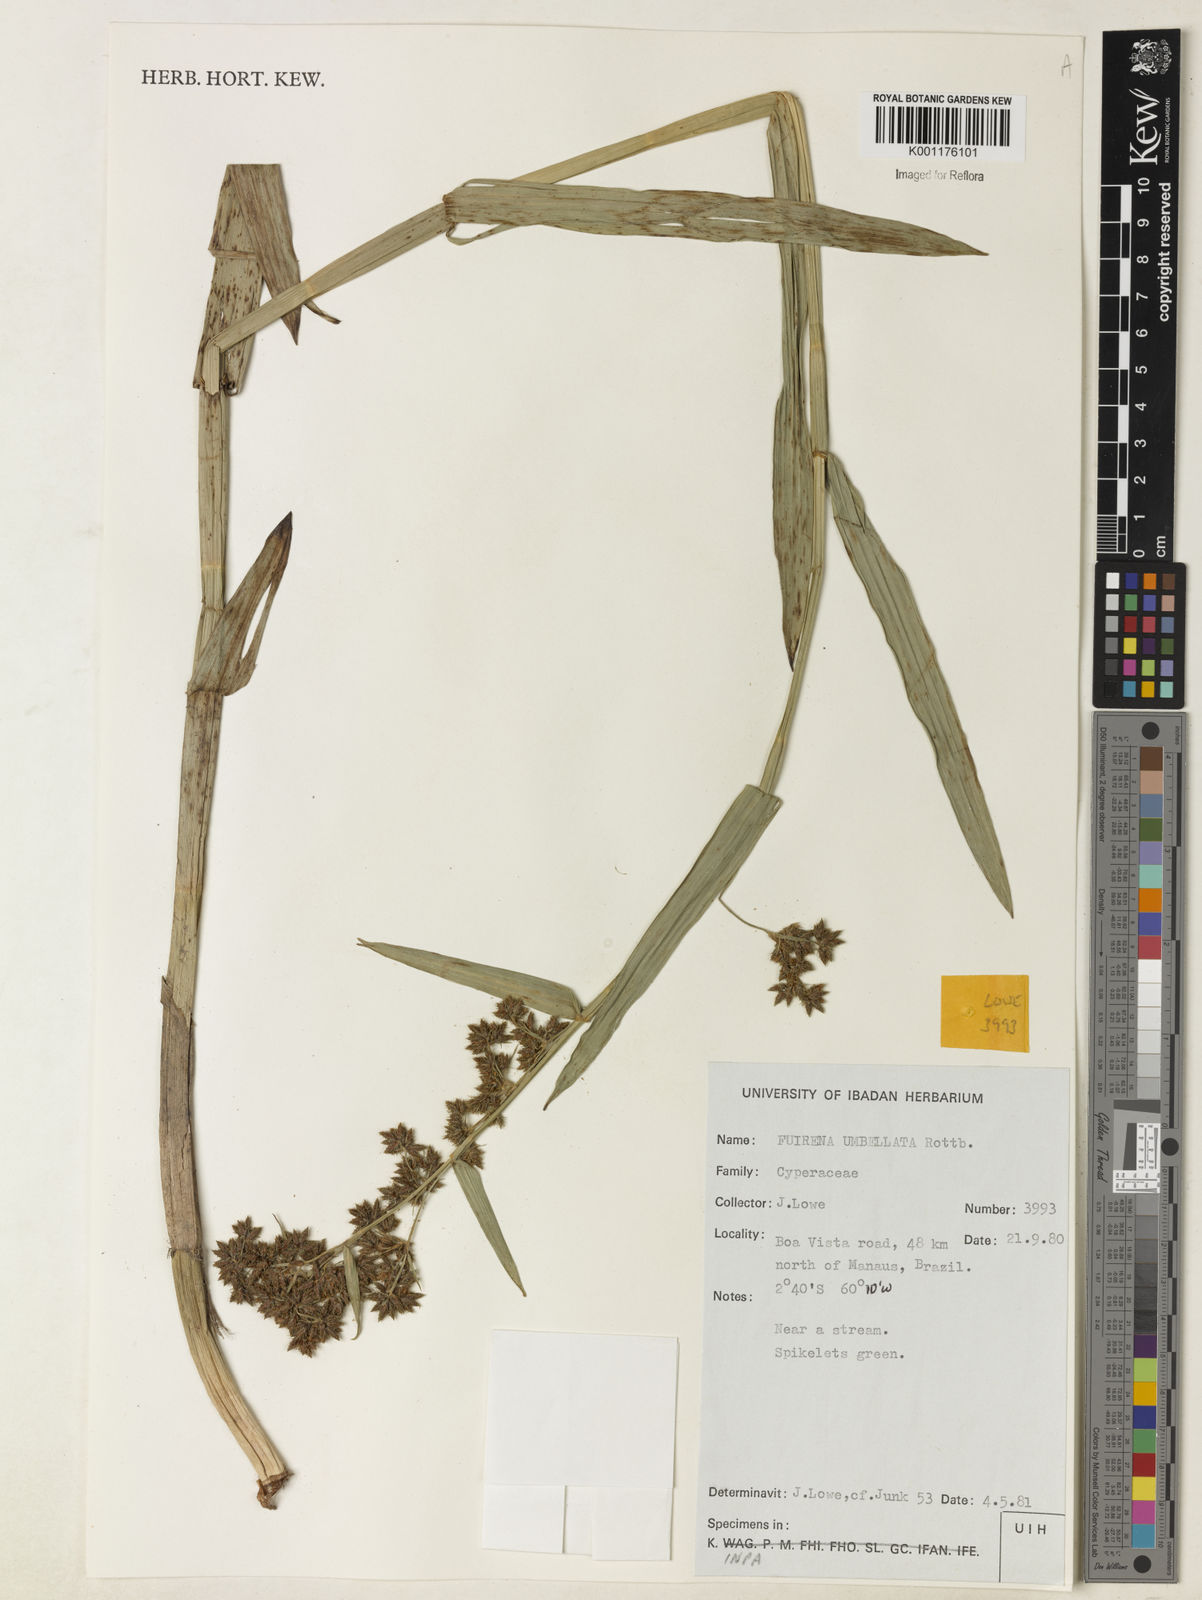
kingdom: Plantae
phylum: Tracheophyta
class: Liliopsida
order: Poales
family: Cyperaceae
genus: Fuirena
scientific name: Fuirena umbellata
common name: Yefen
